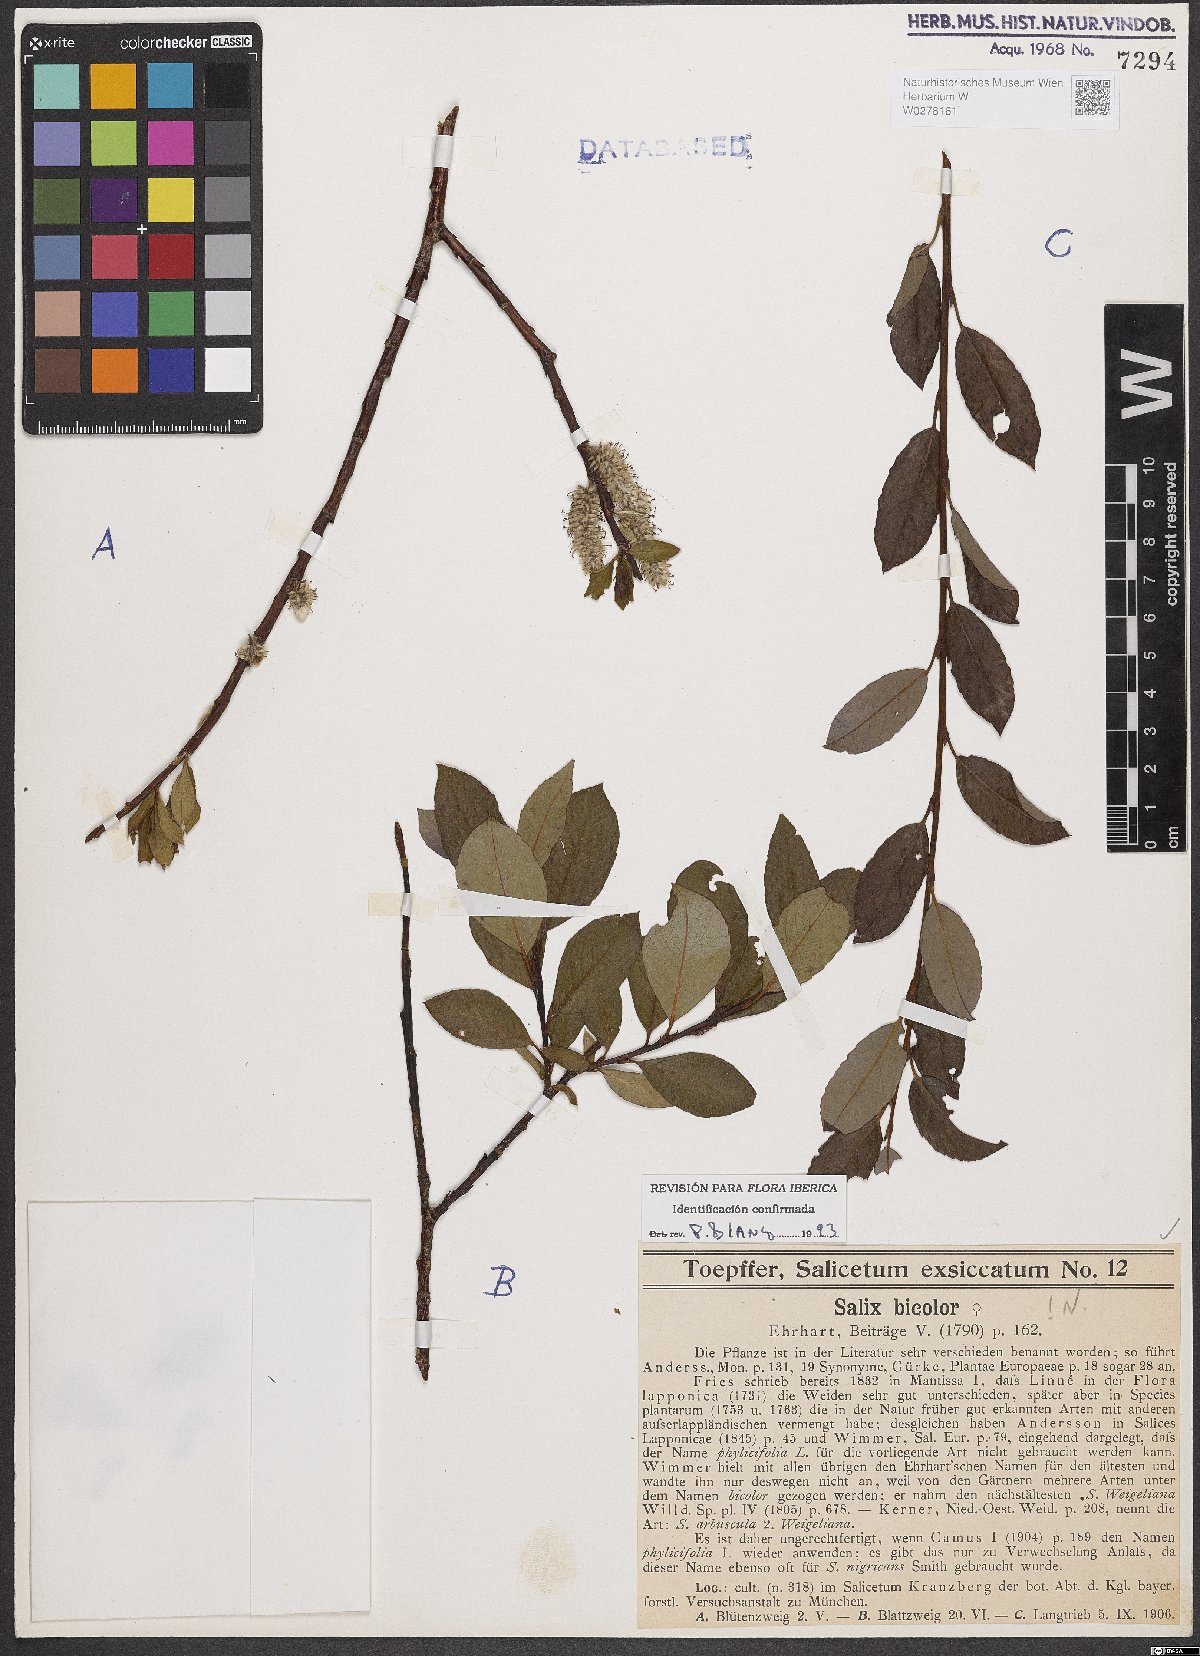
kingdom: Plantae
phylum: Tracheophyta
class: Magnoliopsida
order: Malpighiales
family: Salicaceae
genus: Salix
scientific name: Salix bicolor
